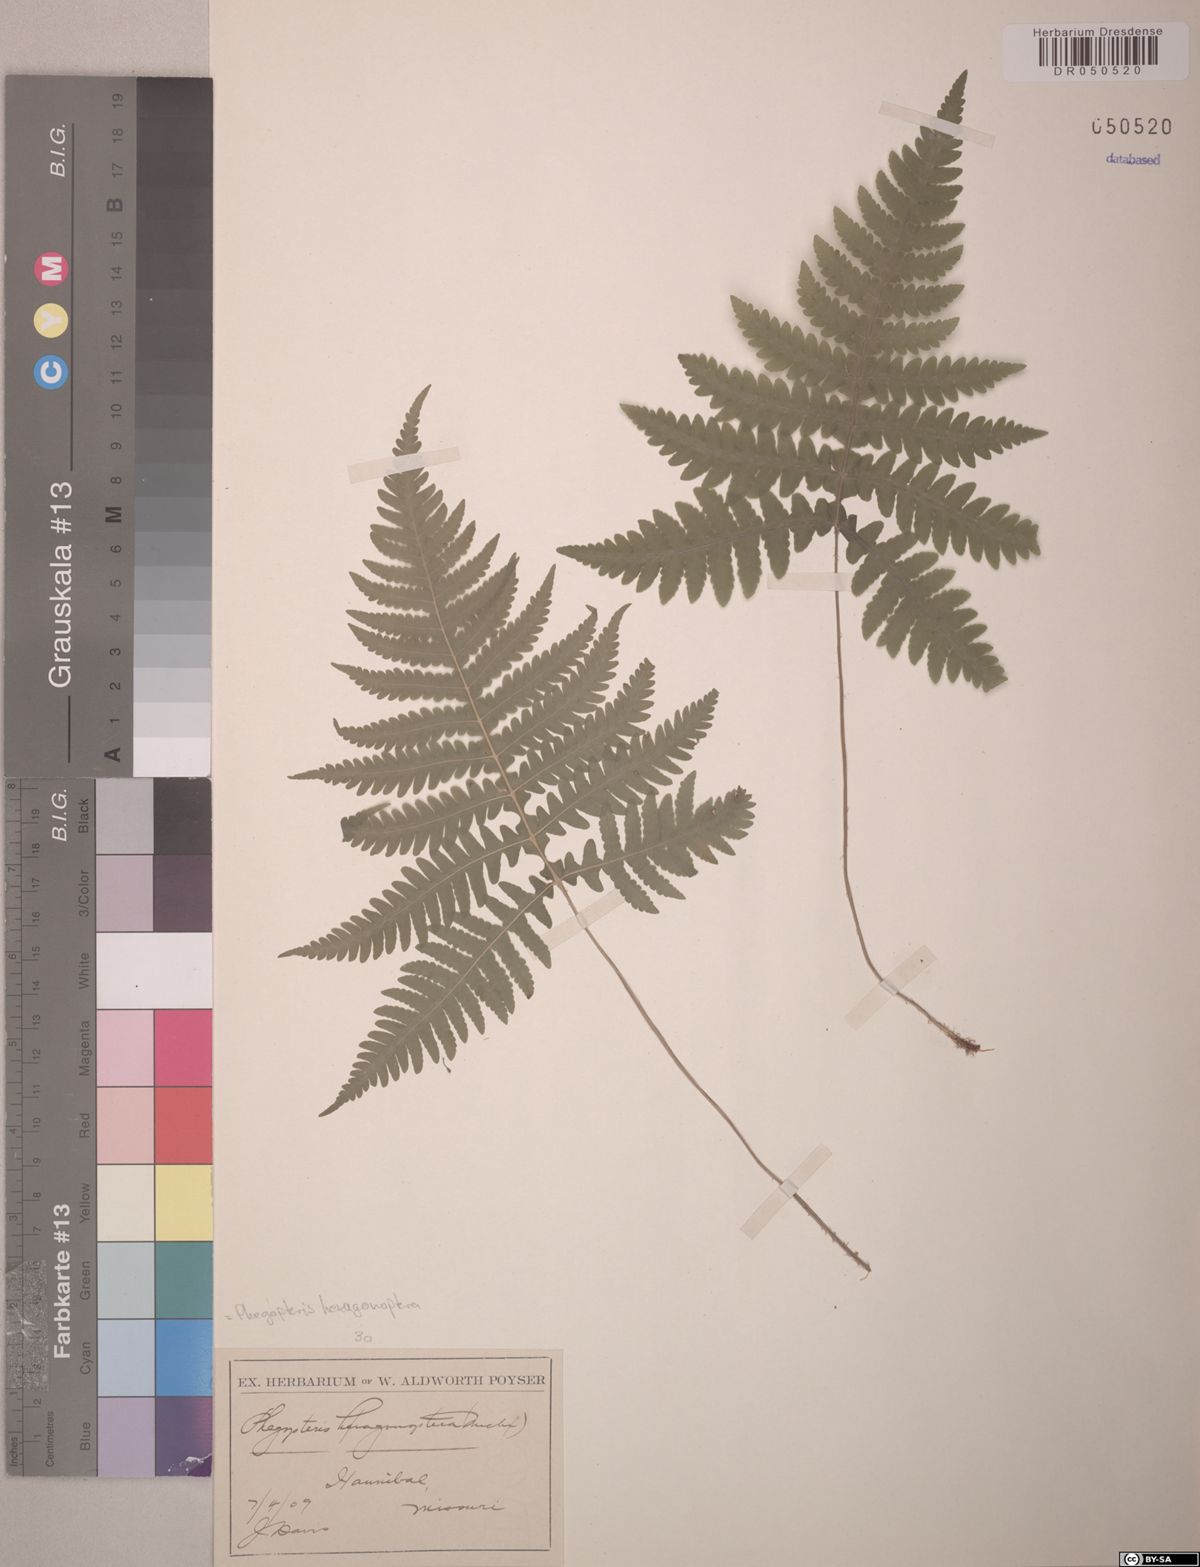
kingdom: Plantae
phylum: Tracheophyta
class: Polypodiopsida
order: Polypodiales
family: Thelypteridaceae
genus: Phegopteris
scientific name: Phegopteris hexagonoptera
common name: Broad beech fern
